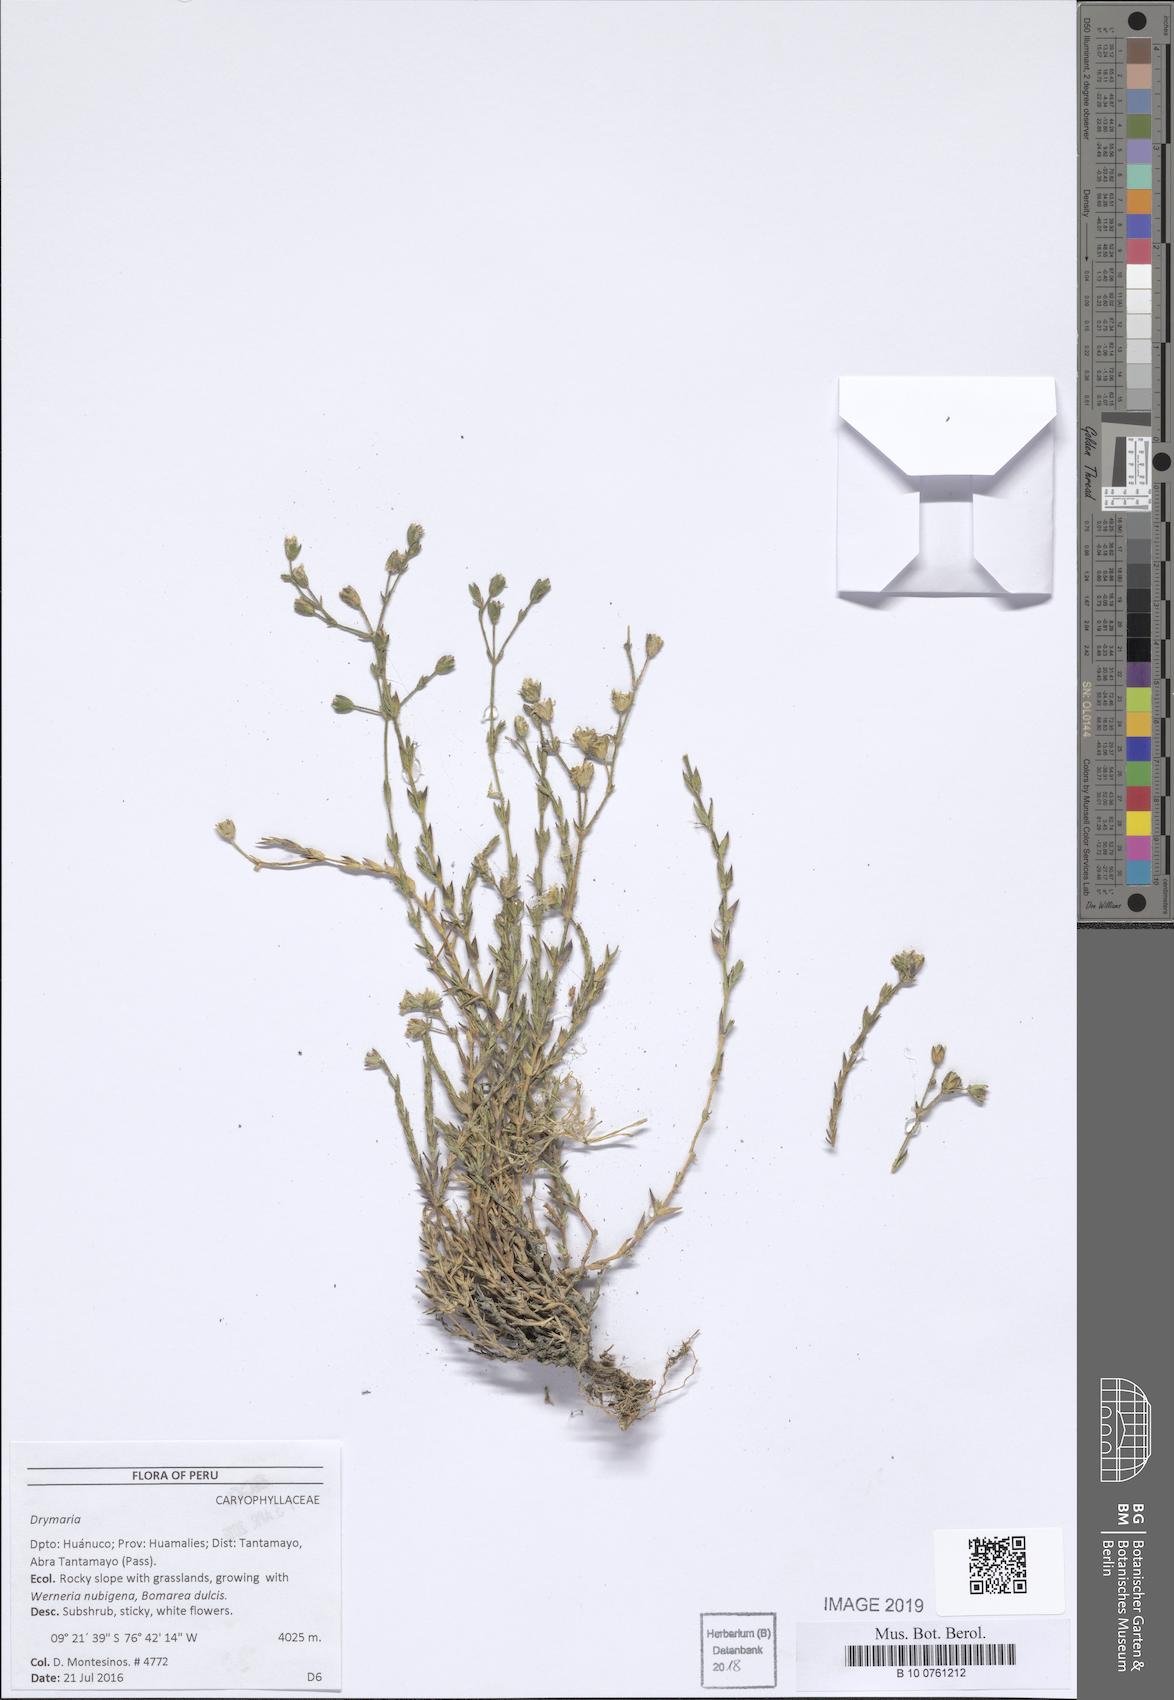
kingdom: Plantae
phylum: Tracheophyta
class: Magnoliopsida
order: Caryophyllales
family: Caryophyllaceae
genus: Drymaria
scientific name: Drymaria
